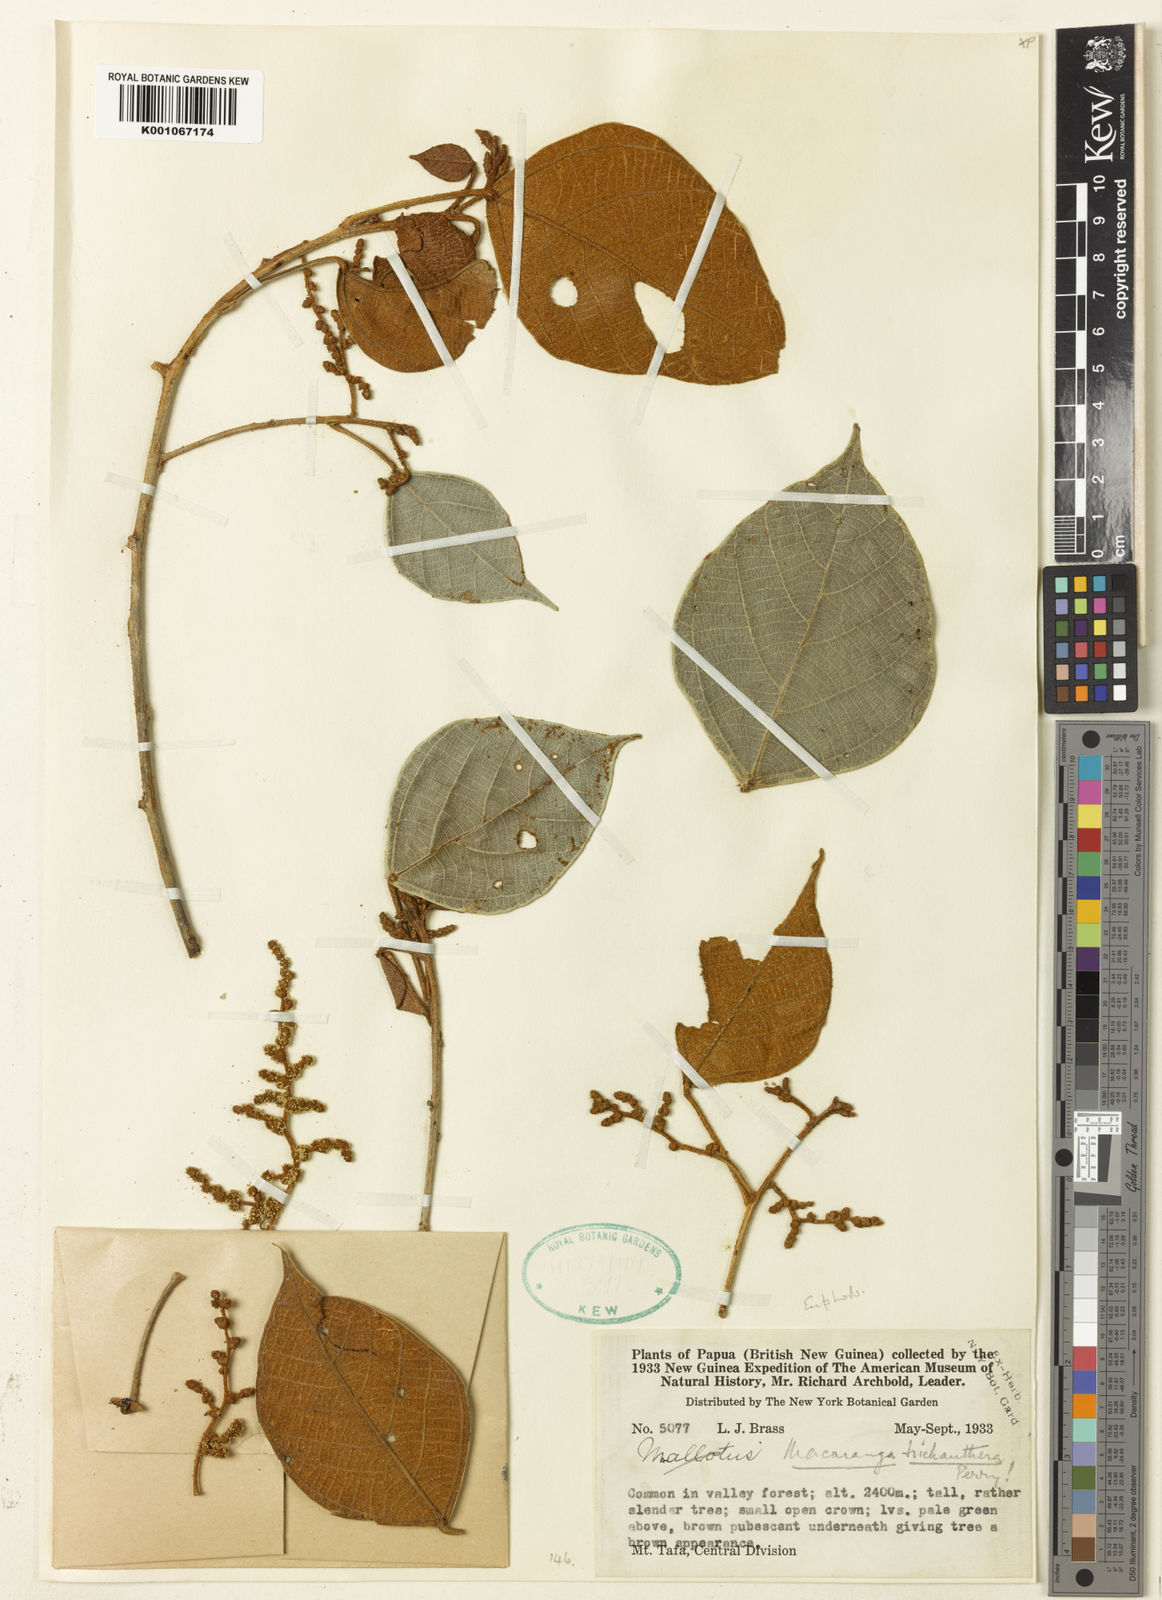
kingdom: Plantae
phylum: Tracheophyta
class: Magnoliopsida
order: Malpighiales
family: Euphorbiaceae
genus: Macaranga
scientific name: Macaranga trichanthera
